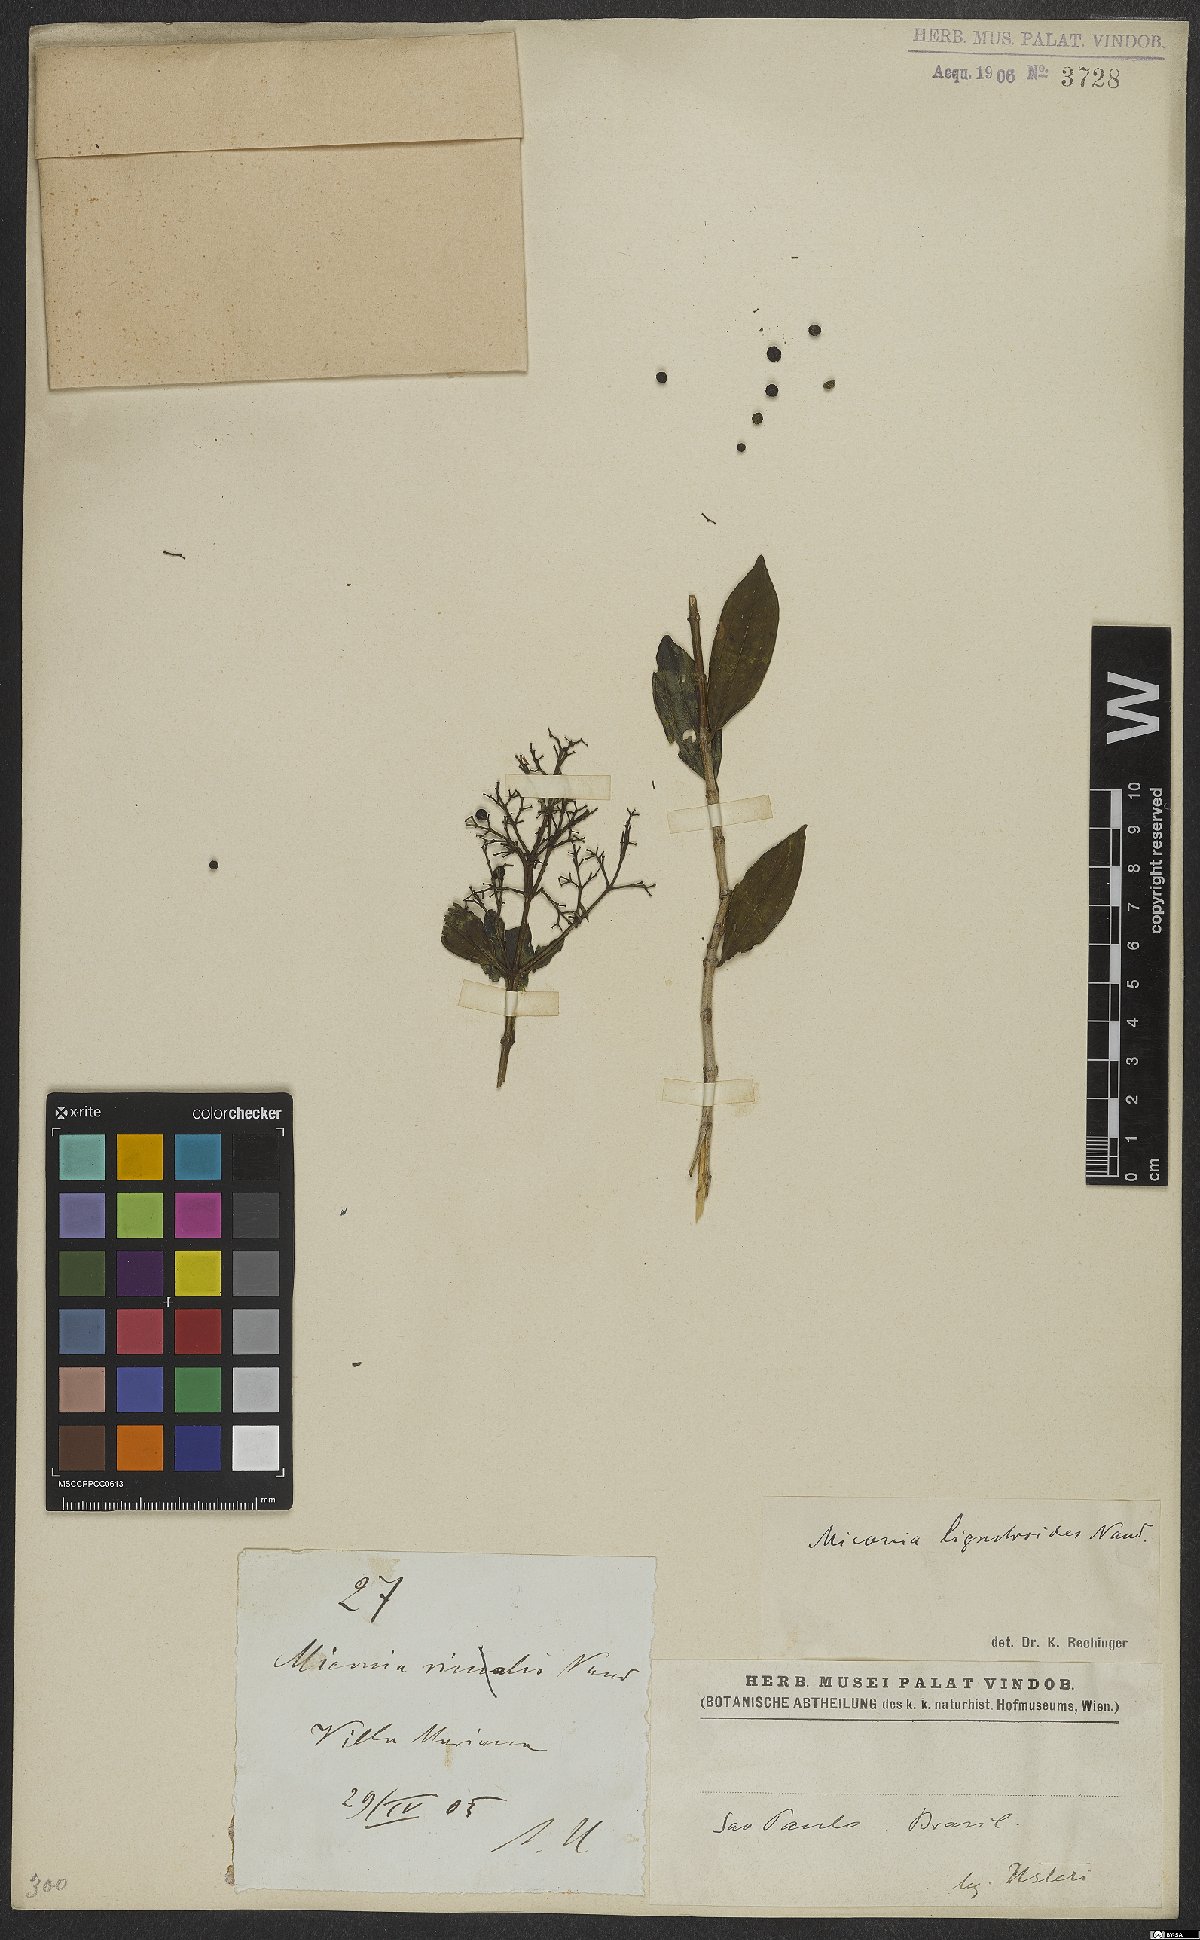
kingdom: Plantae
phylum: Tracheophyta
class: Magnoliopsida
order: Myrtales
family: Melastomataceae
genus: Miconia
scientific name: Miconia ligustroides
